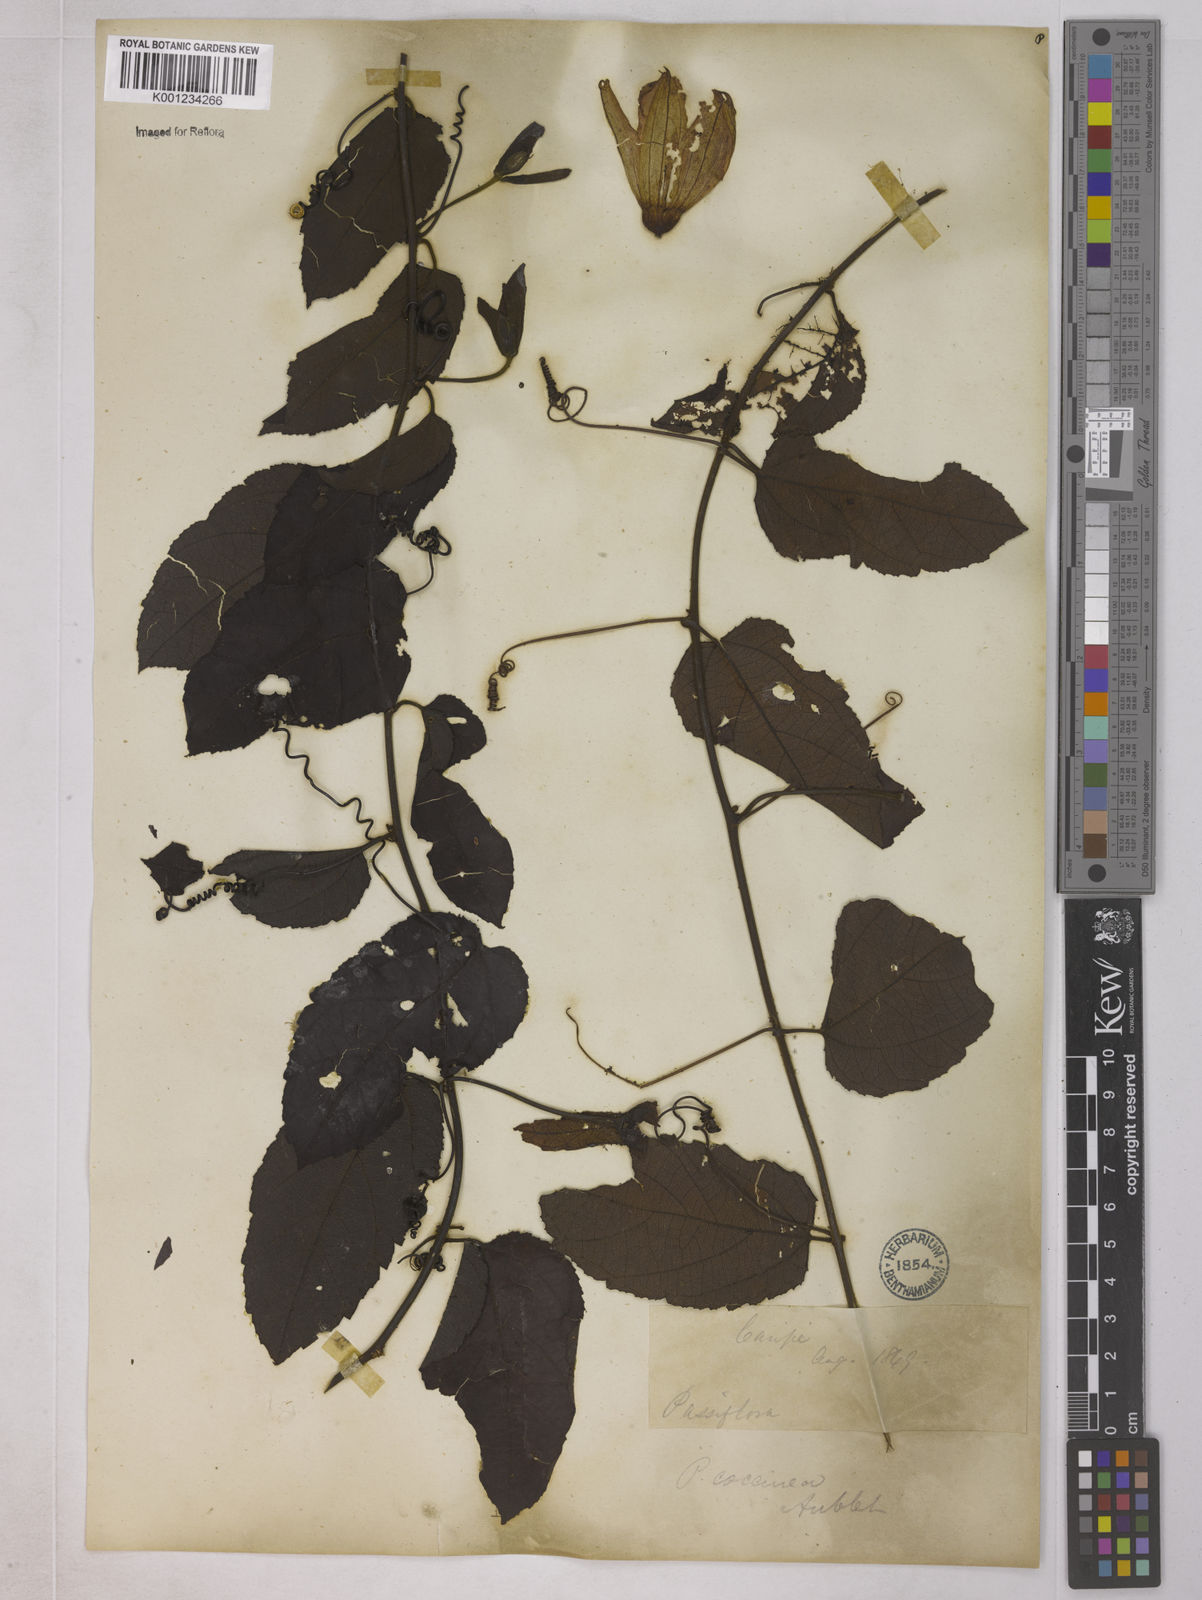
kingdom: Plantae
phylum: Tracheophyta
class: Magnoliopsida
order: Malpighiales
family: Passifloraceae
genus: Passiflora
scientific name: Passiflora coccinea
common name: Scarlet passionflower
